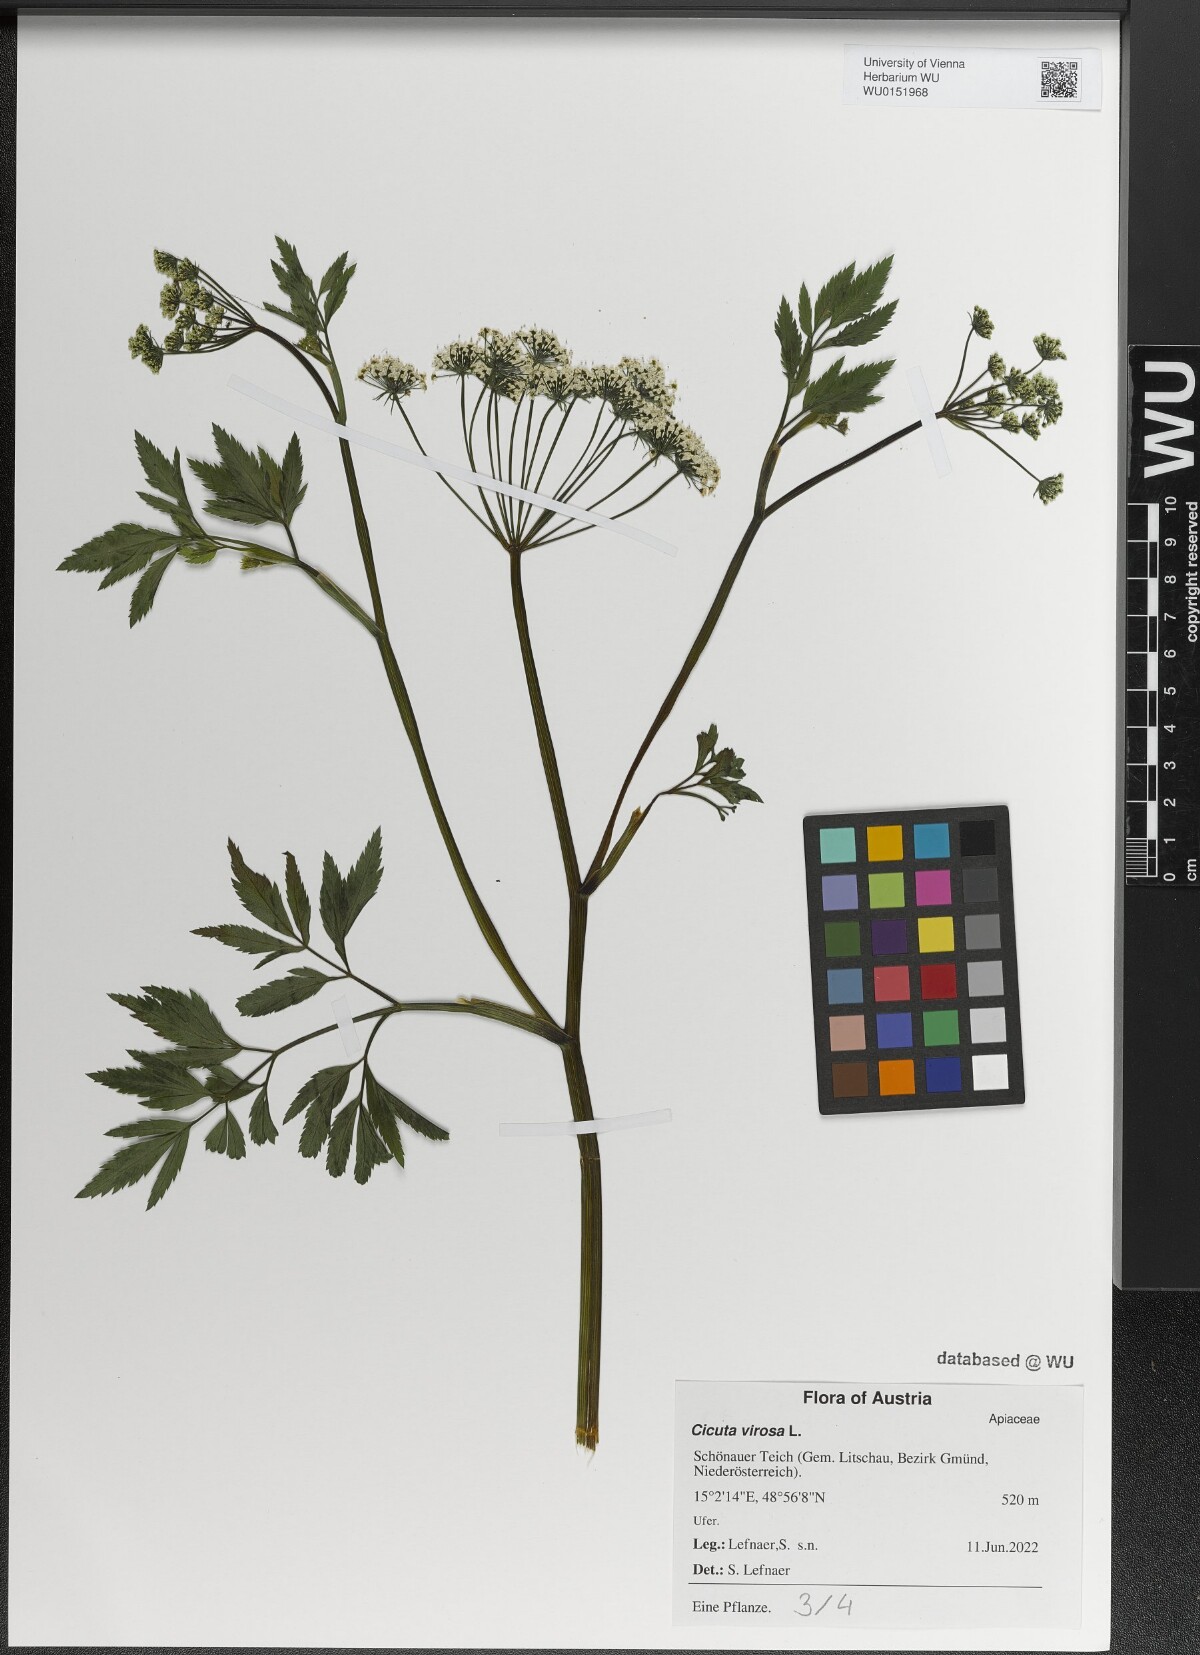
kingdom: Plantae
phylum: Tracheophyta
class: Magnoliopsida
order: Apiales
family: Apiaceae
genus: Cicuta
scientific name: Cicuta virosa
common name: Cowbane
